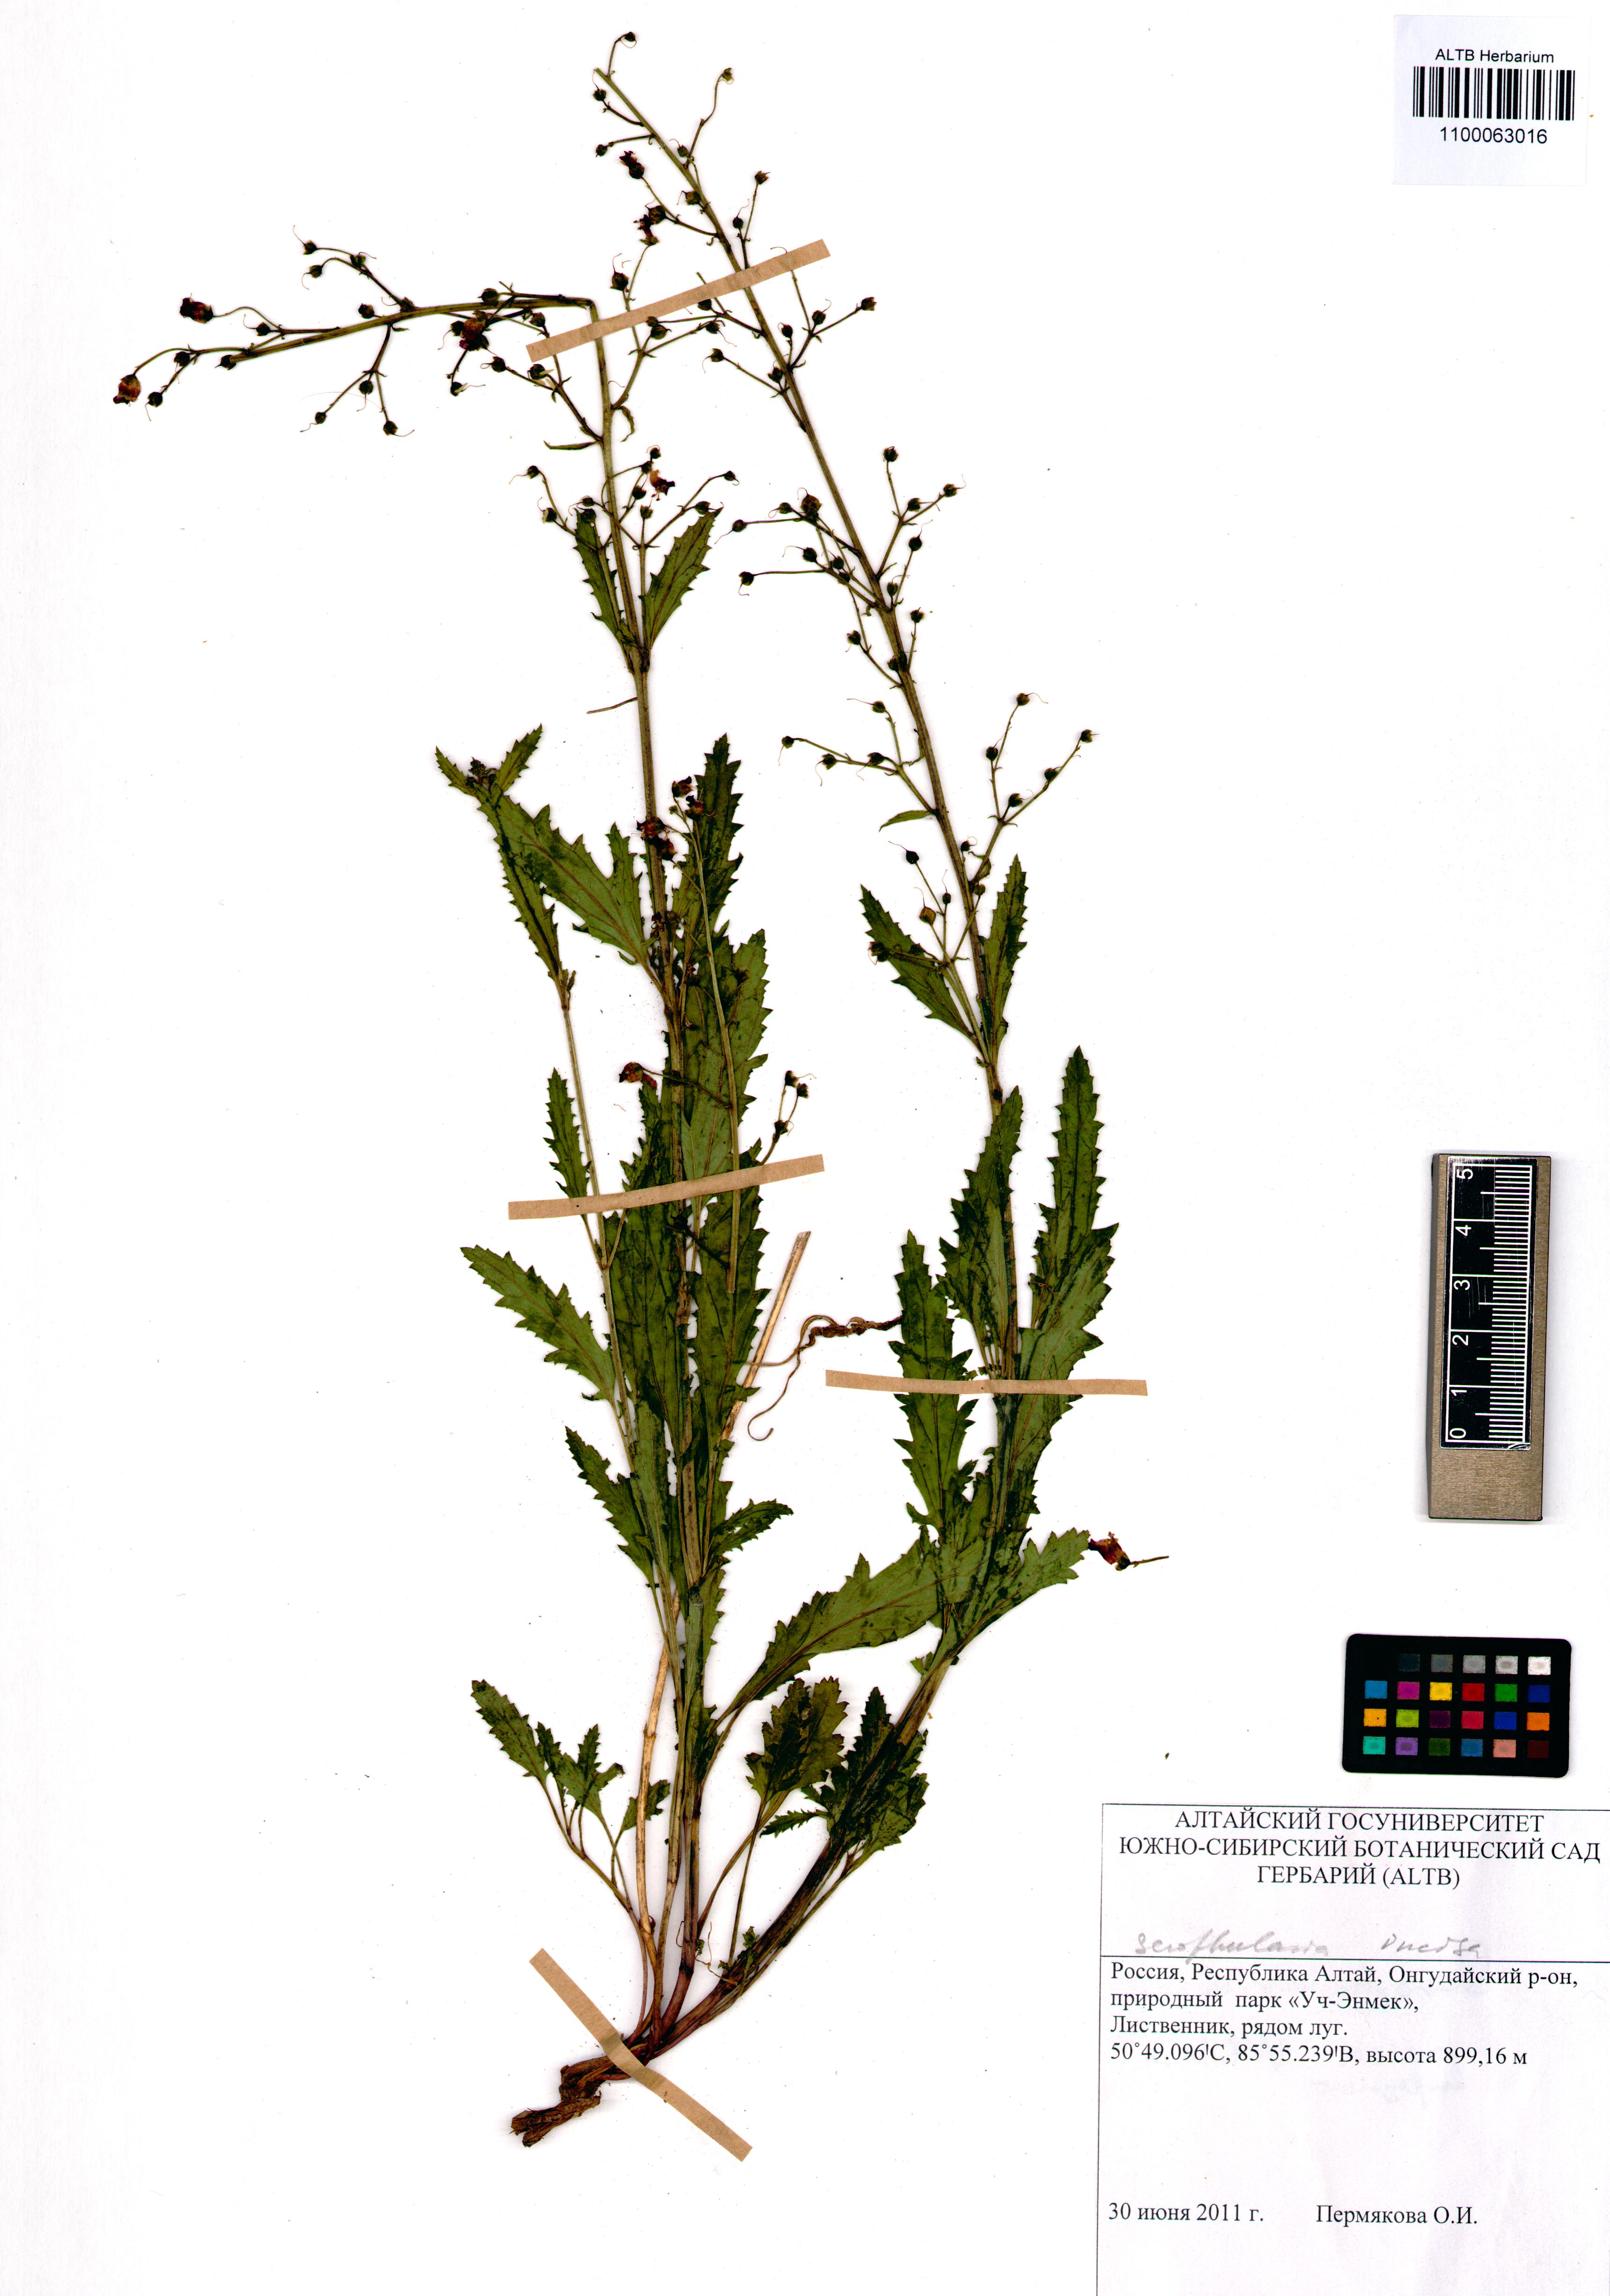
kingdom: Plantae
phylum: Tracheophyta
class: Magnoliopsida
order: Lamiales
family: Scrophulariaceae
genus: Scrophularia
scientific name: Scrophularia incisa
